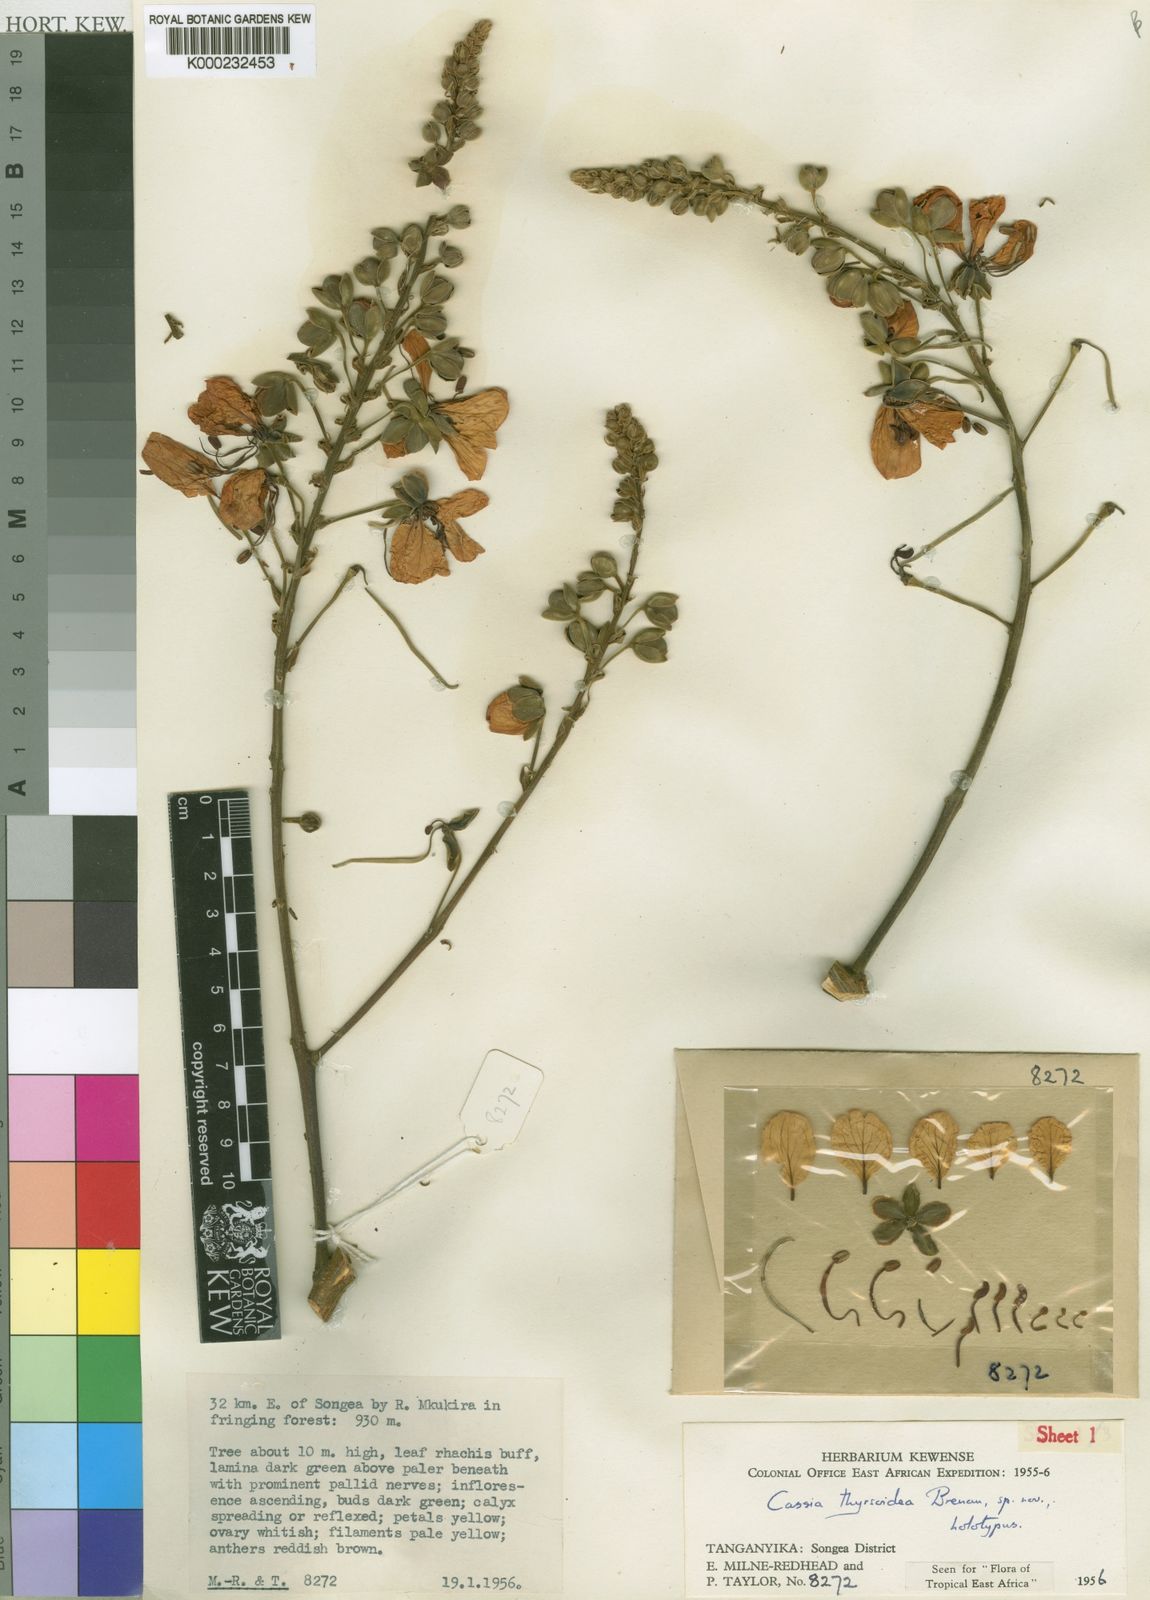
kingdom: Plantae
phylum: Tracheophyta
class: Magnoliopsida
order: Fabales
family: Fabaceae
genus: Cassia
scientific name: Cassia thyrsoidea
